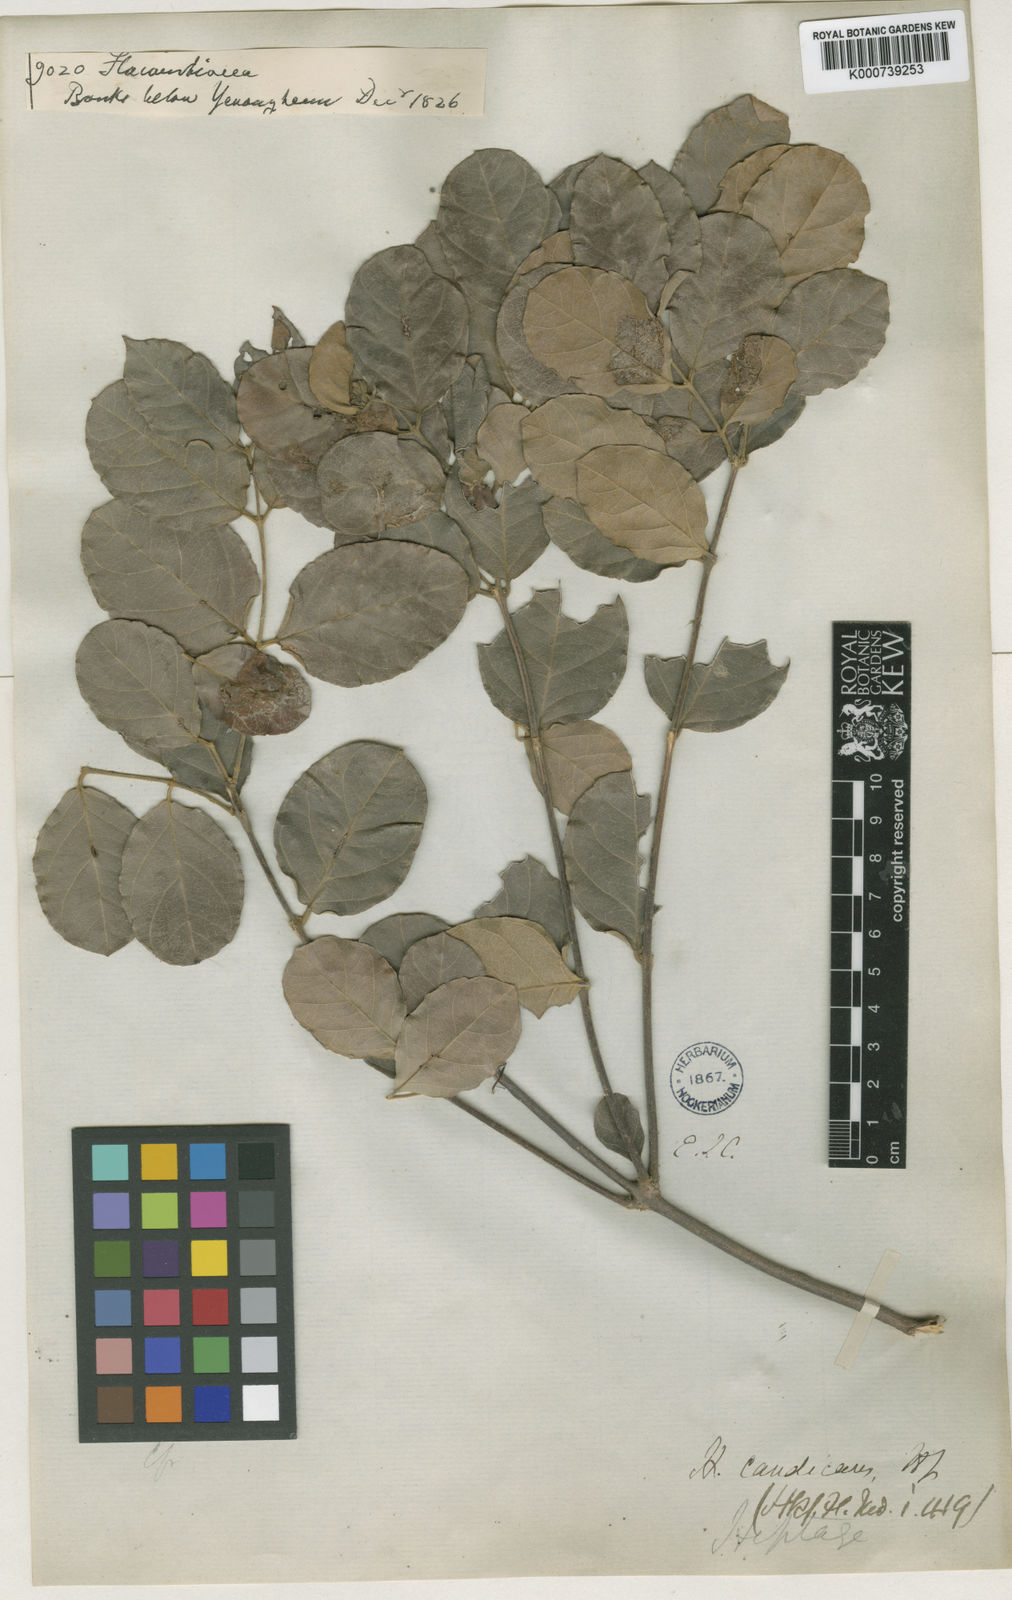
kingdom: Plantae
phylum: Tracheophyta
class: Magnoliopsida
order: Malpighiales
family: Malpighiaceae
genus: Hiptage
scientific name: Hiptage candicans
